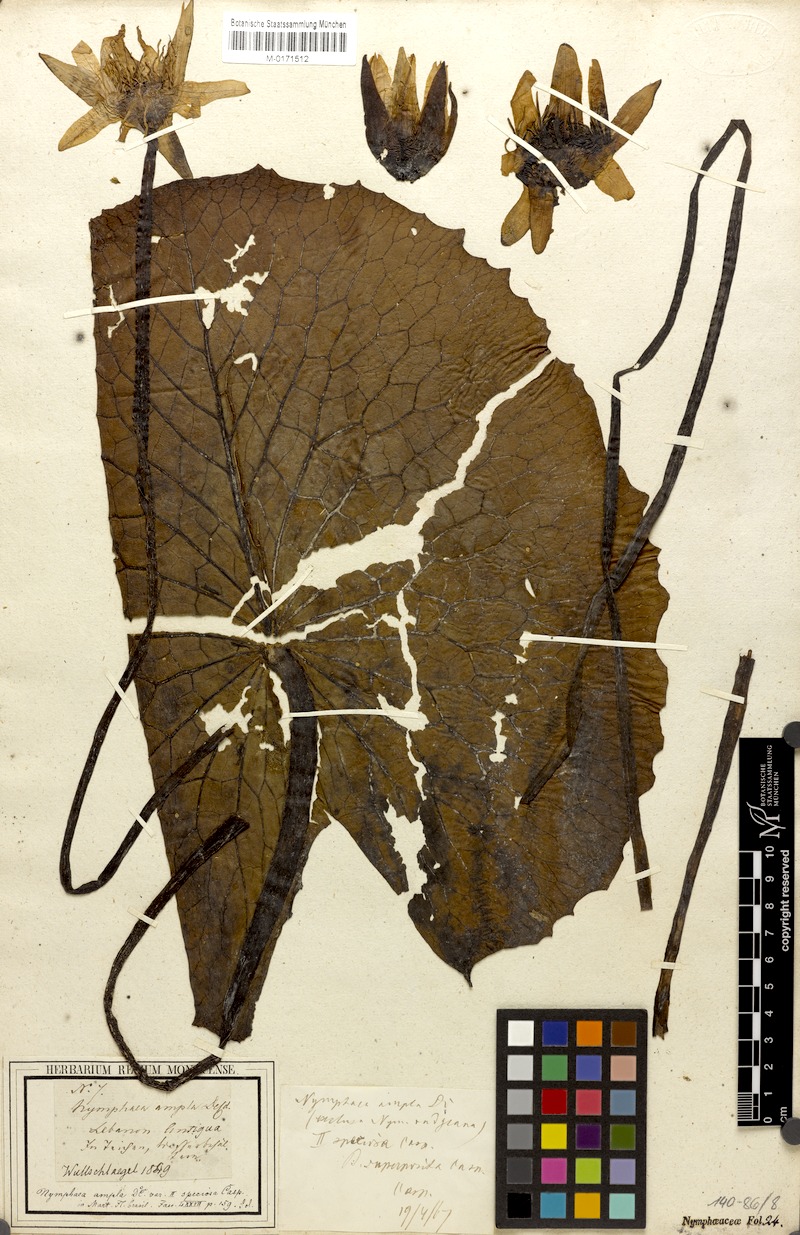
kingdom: Plantae
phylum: Tracheophyta
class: Magnoliopsida
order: Nymphaeales
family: Nymphaeaceae
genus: Nymphaea
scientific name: Nymphaea ampla
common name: Dotleaf waterlily
